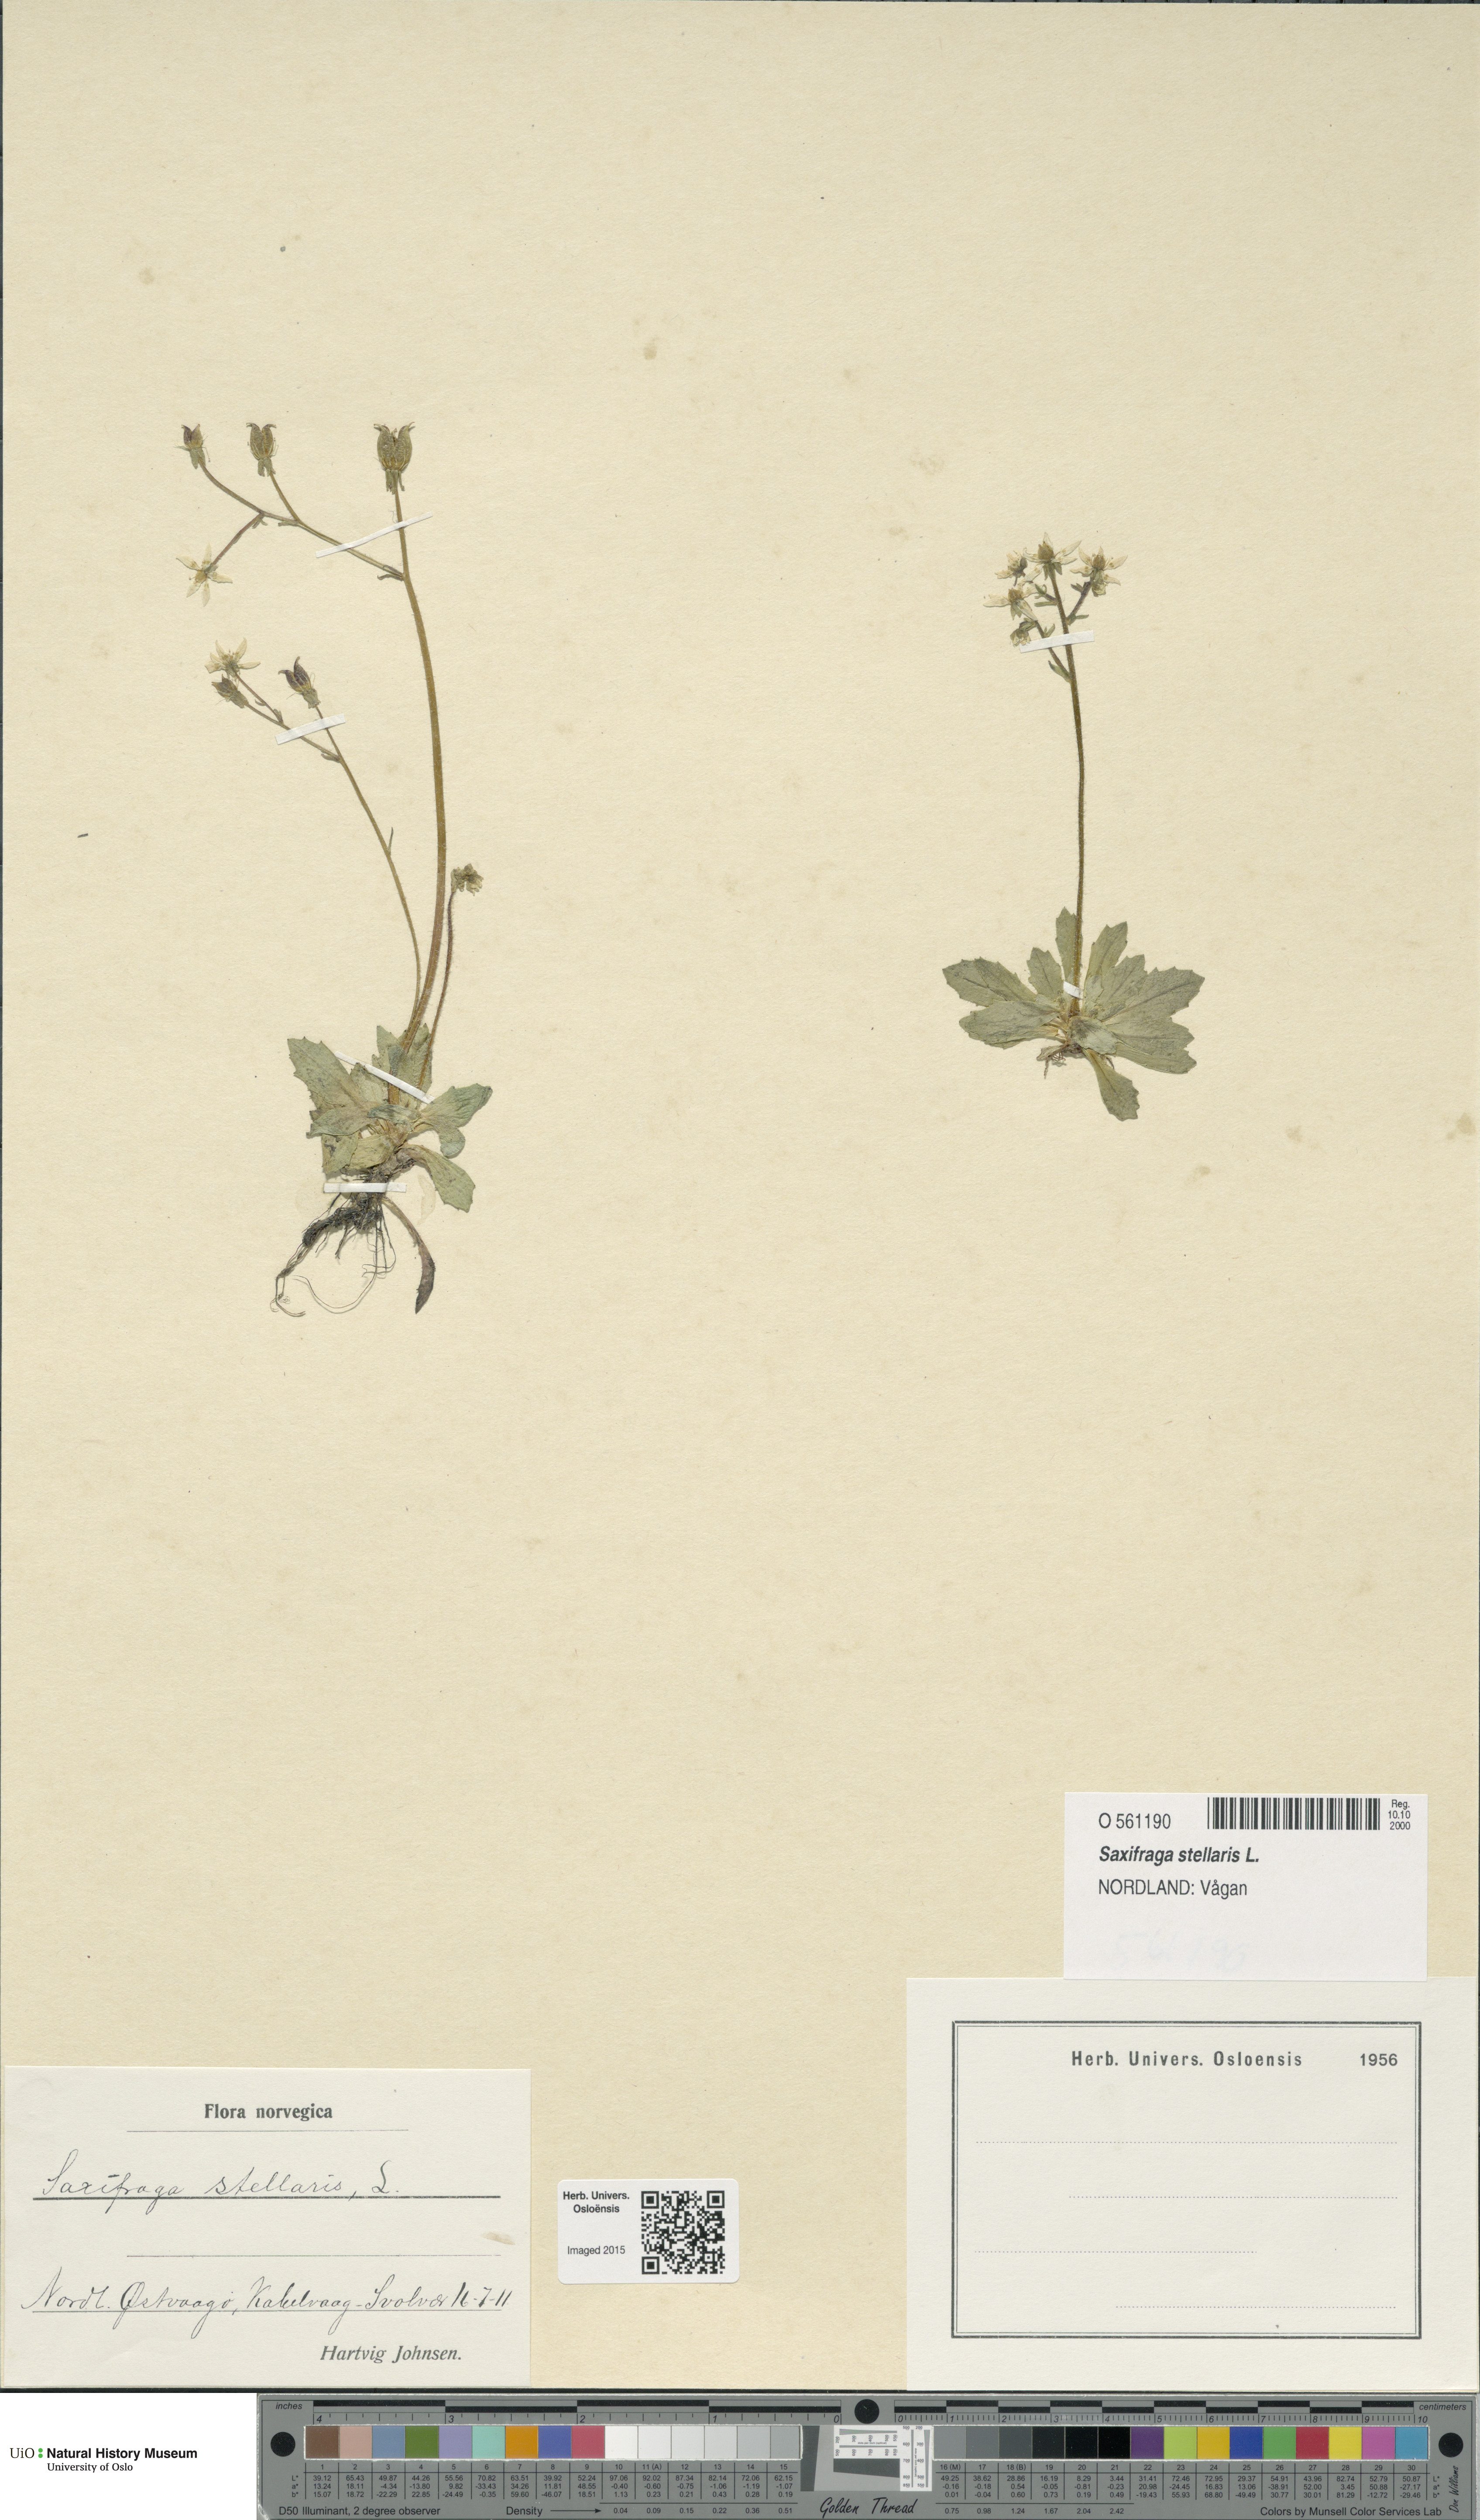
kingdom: Plantae
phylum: Tracheophyta
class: Magnoliopsida
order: Saxifragales
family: Saxifragaceae
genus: Micranthes
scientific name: Micranthes stellaris
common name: Starry saxifrage
